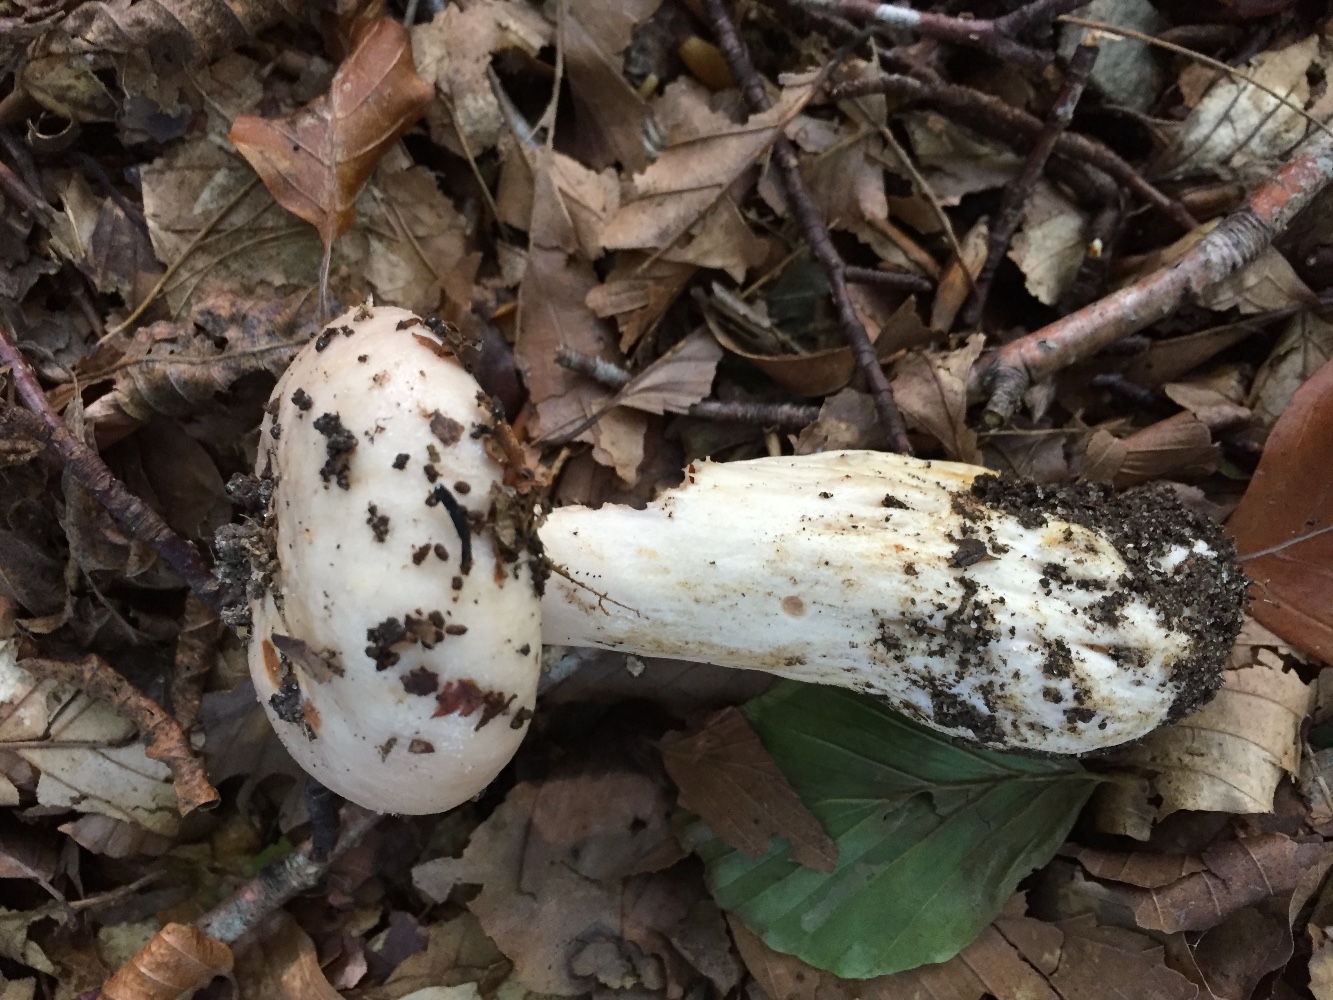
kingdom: Fungi
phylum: Basidiomycota
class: Agaricomycetes
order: Russulales
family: Russulaceae
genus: Lactarius
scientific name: Lactarius pallidus
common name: bleg mælkehat
